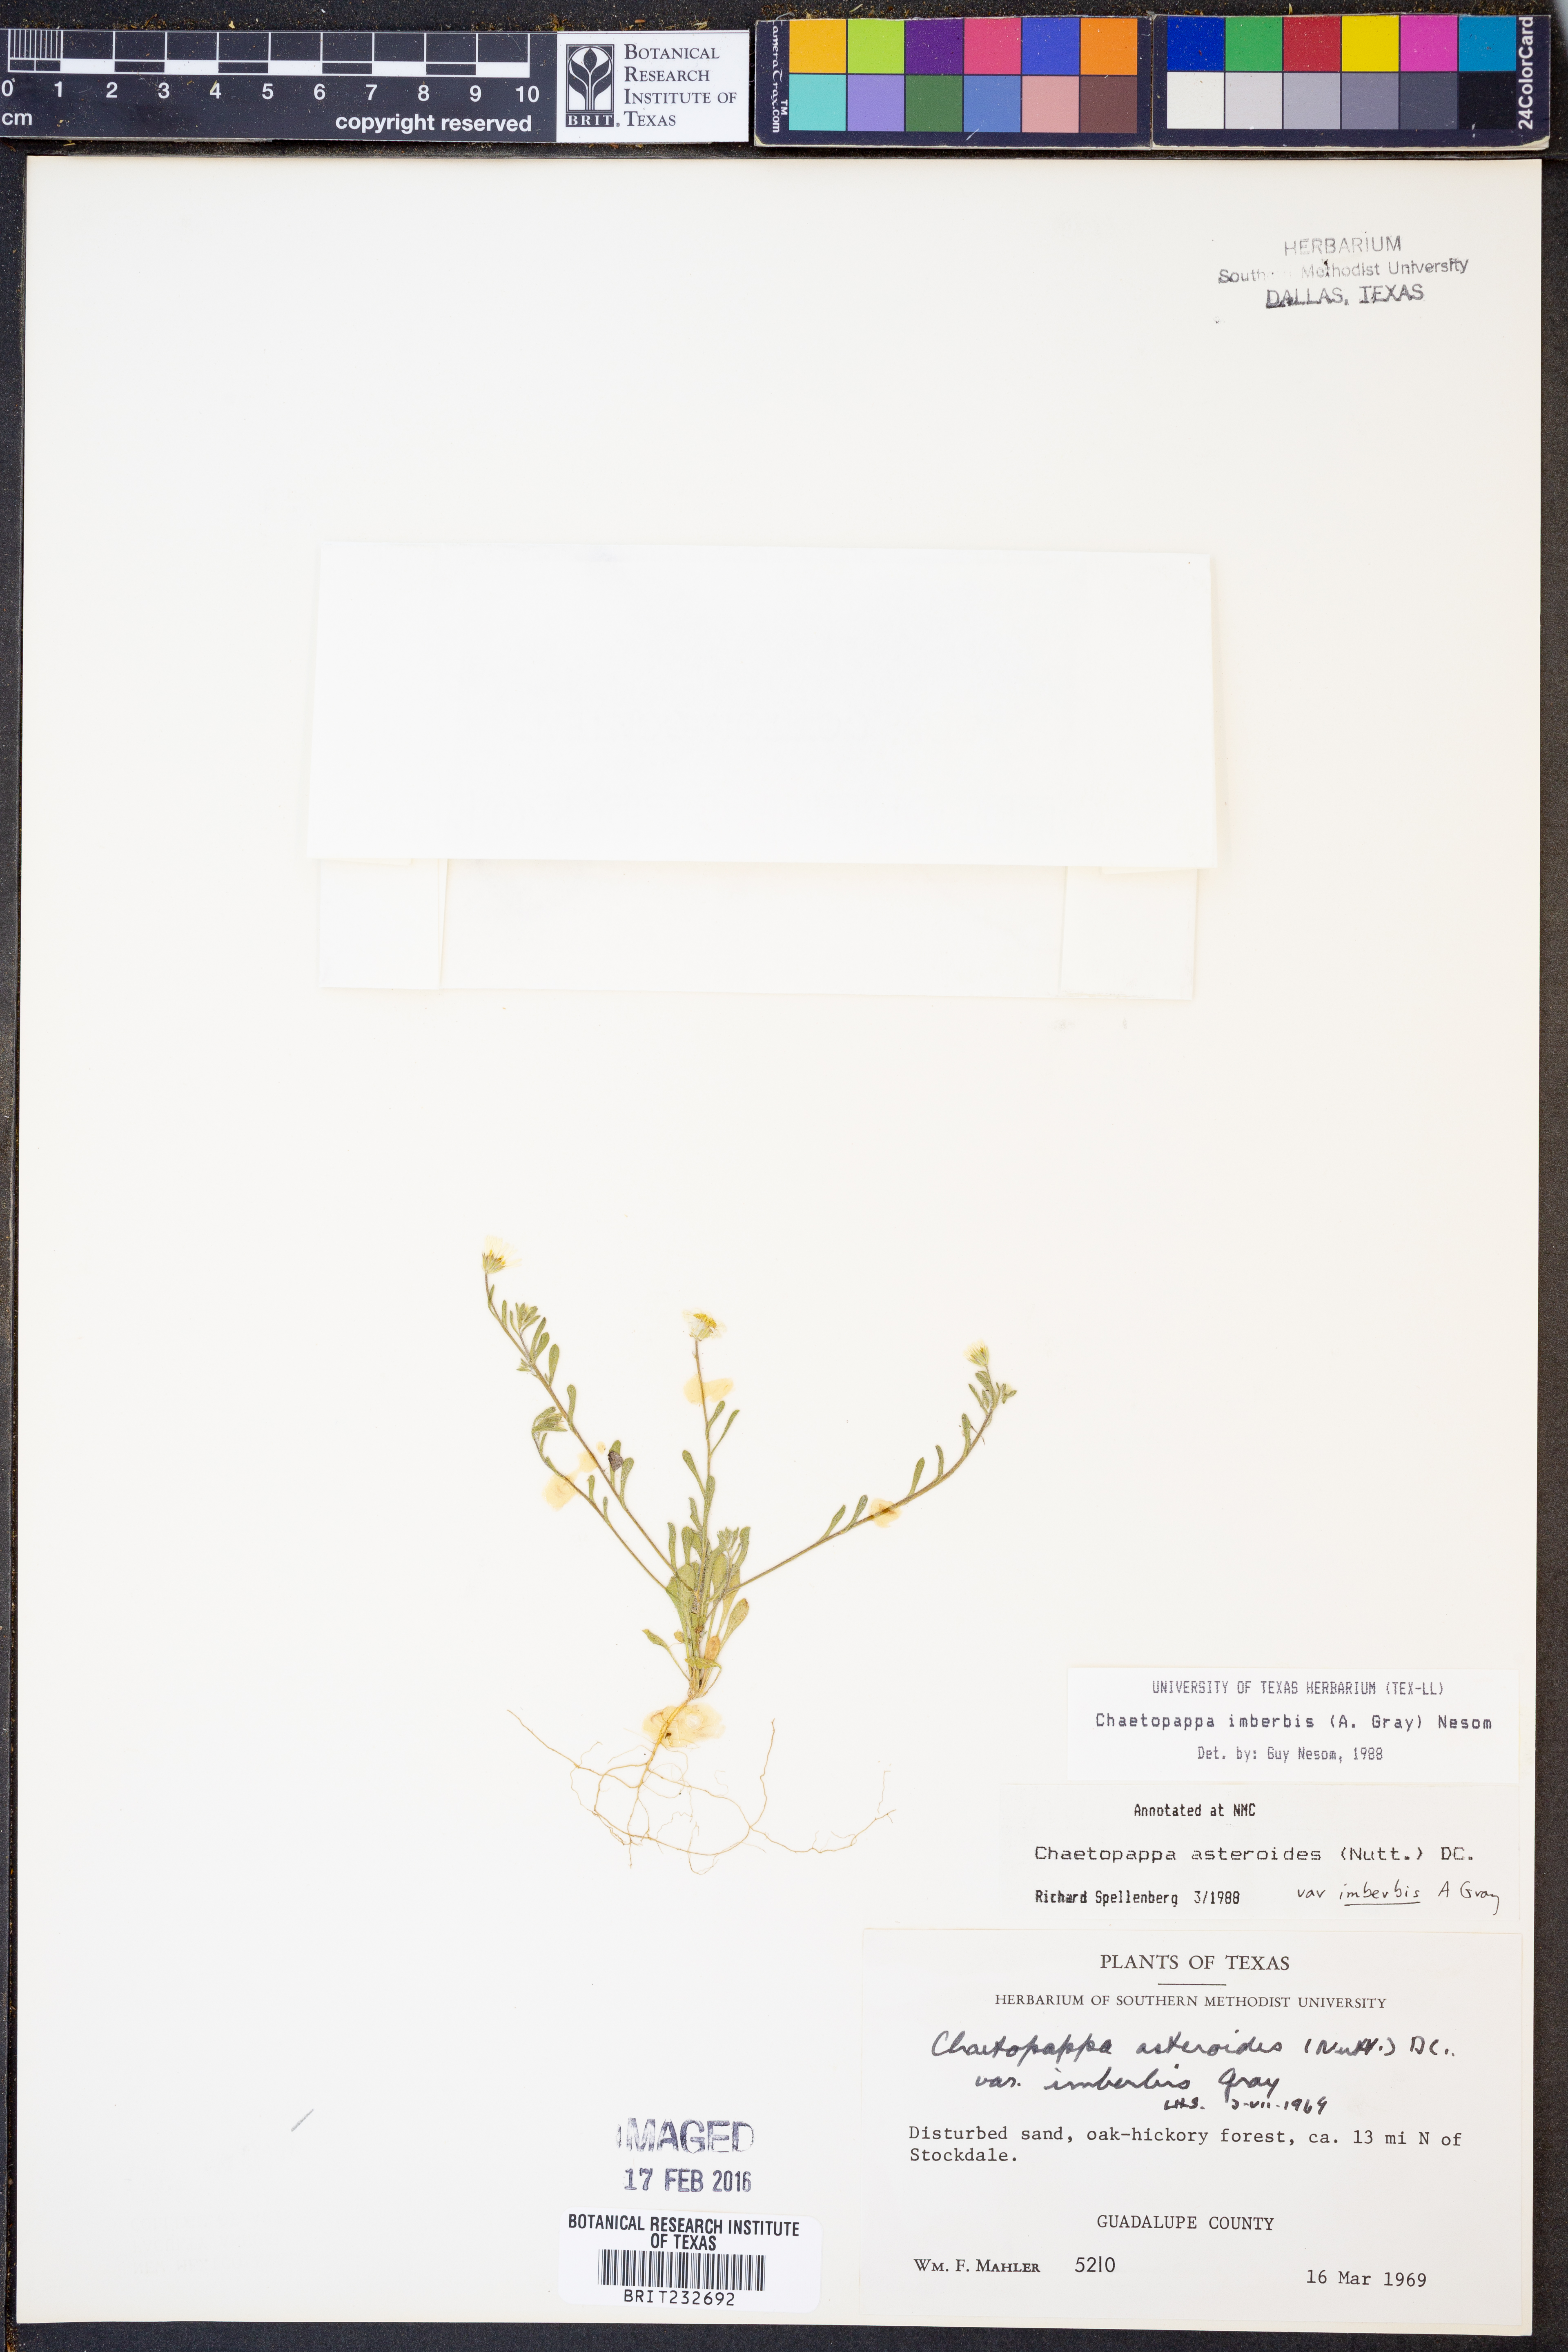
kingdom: Plantae
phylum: Tracheophyta
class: Magnoliopsida
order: Asterales
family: Asteraceae
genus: Chaetopappa
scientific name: Chaetopappa imberbis
